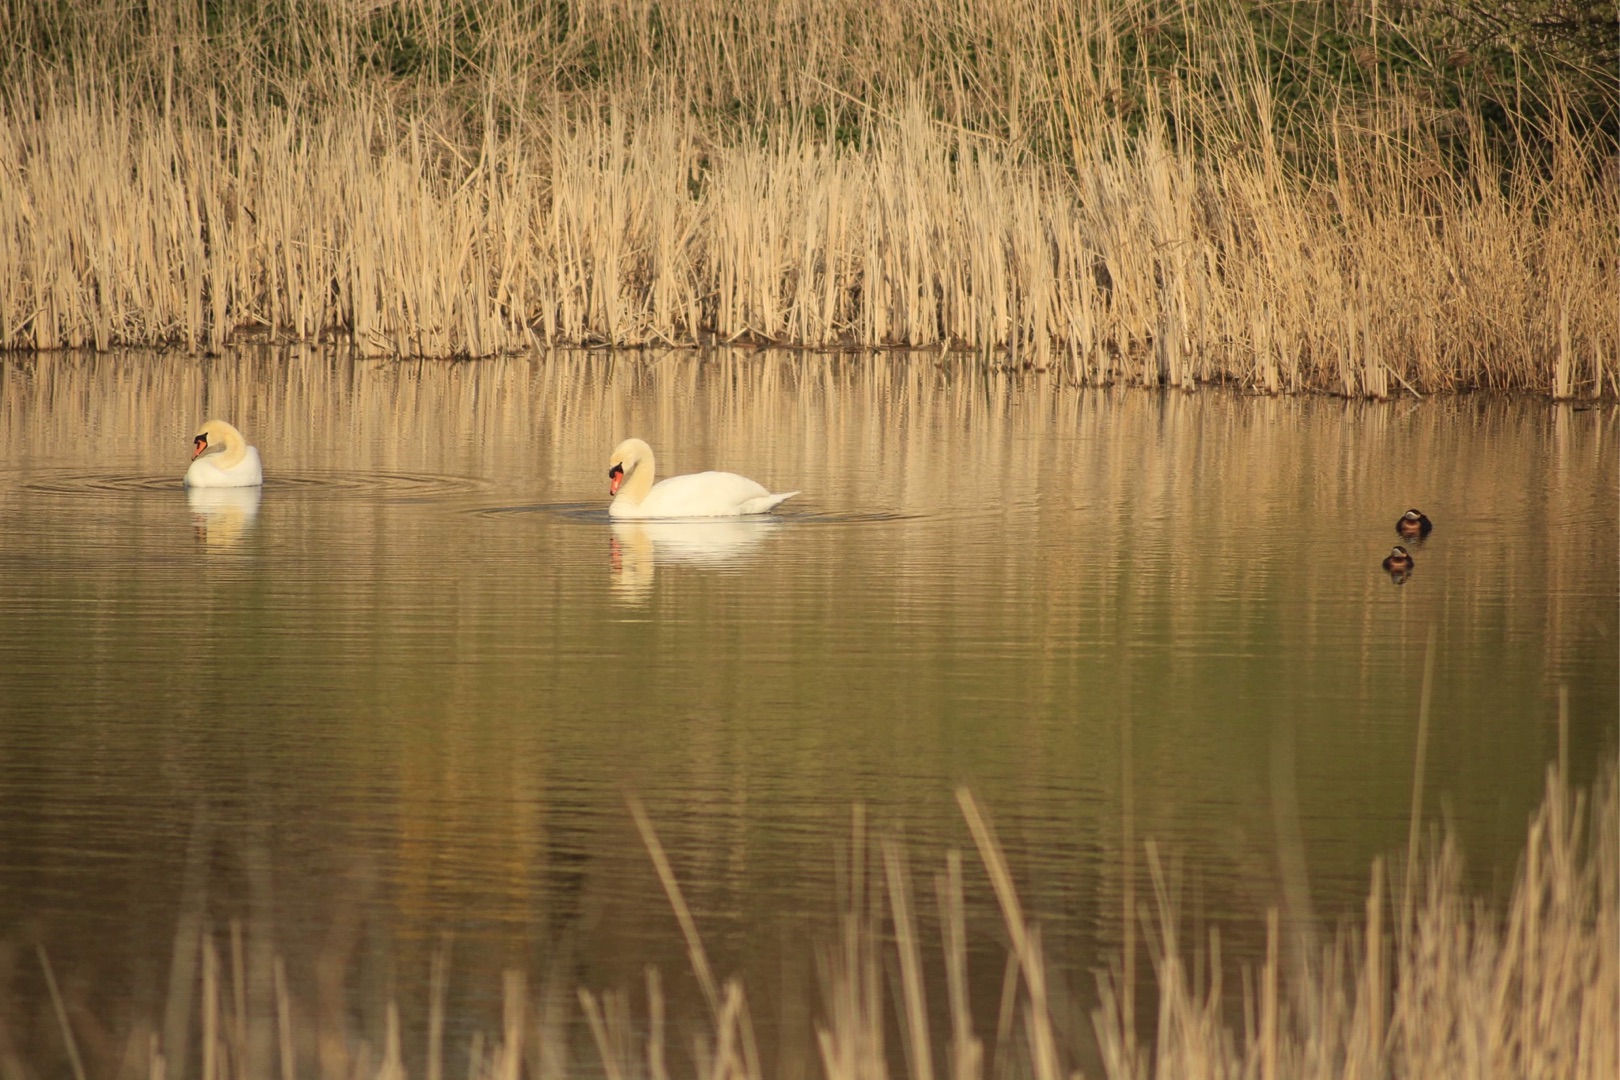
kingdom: Animalia
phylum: Chordata
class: Aves
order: Podicipediformes
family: Podicipedidae
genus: Podiceps
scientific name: Podiceps grisegena
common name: Gråstrubet lappedykker
